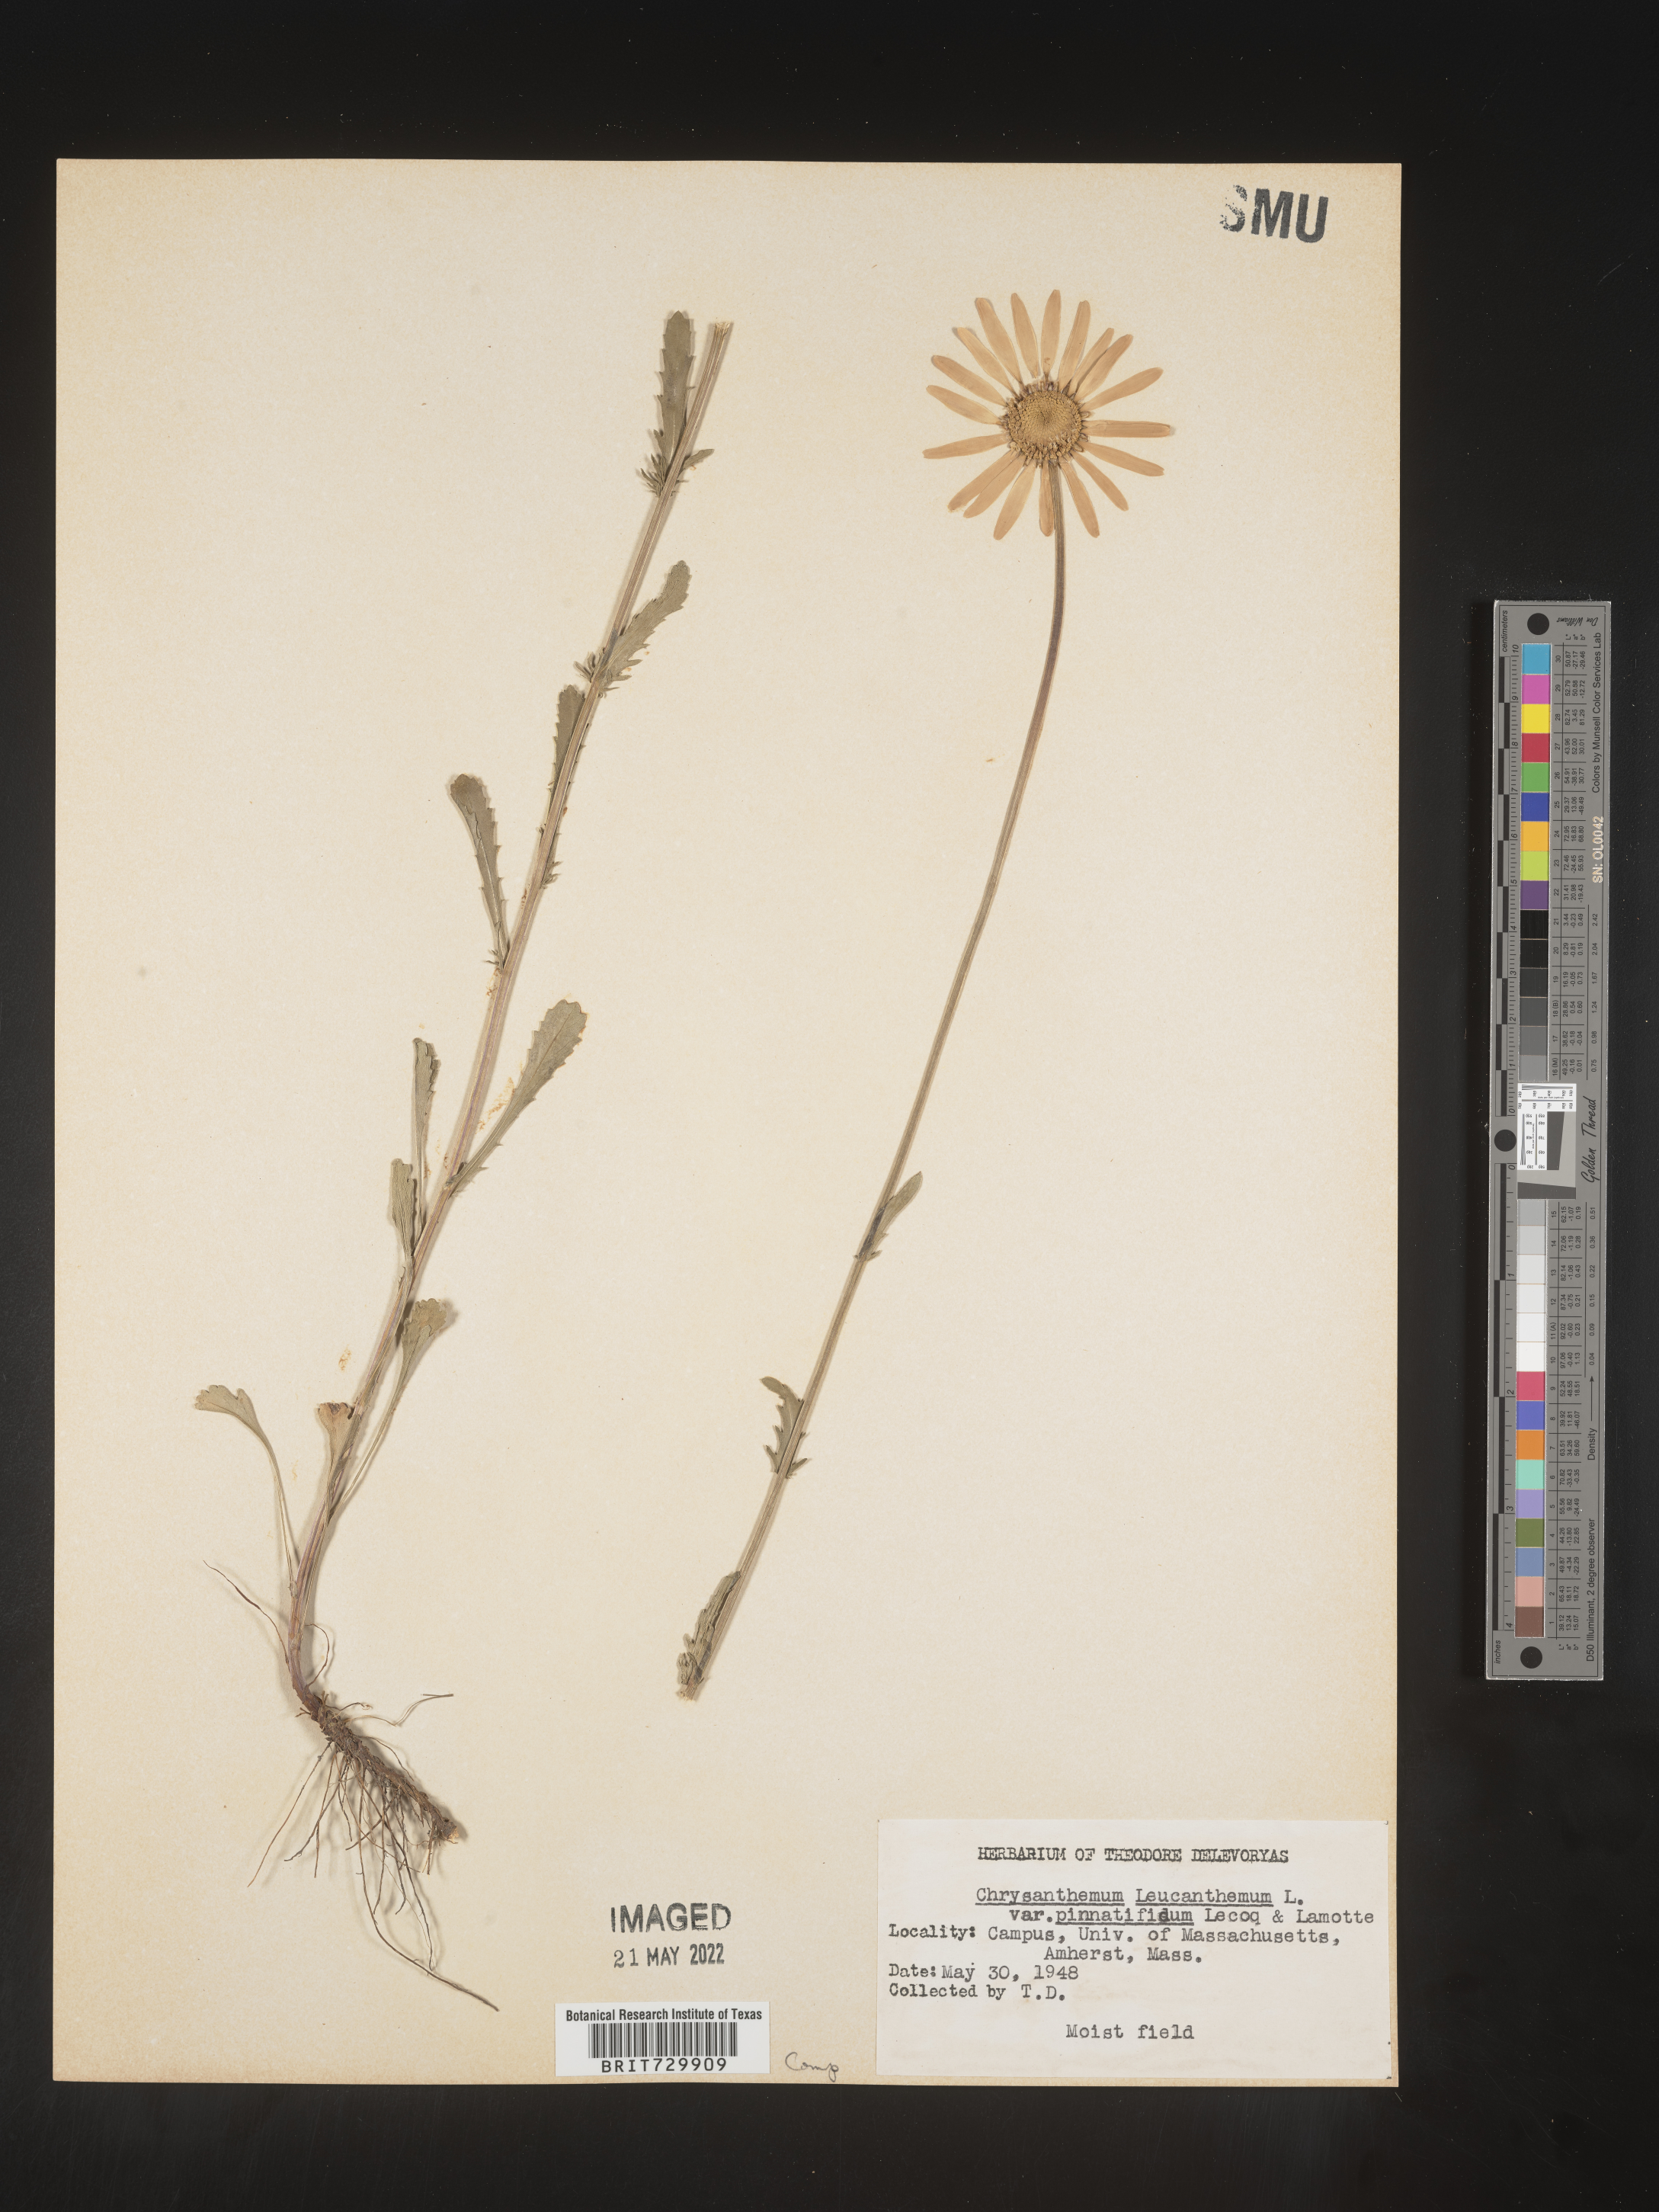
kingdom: Plantae
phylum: Tracheophyta
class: Magnoliopsida
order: Asterales
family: Asteraceae
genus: Leucanthemum
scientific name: Leucanthemum vulgare
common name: Oxeye daisy
